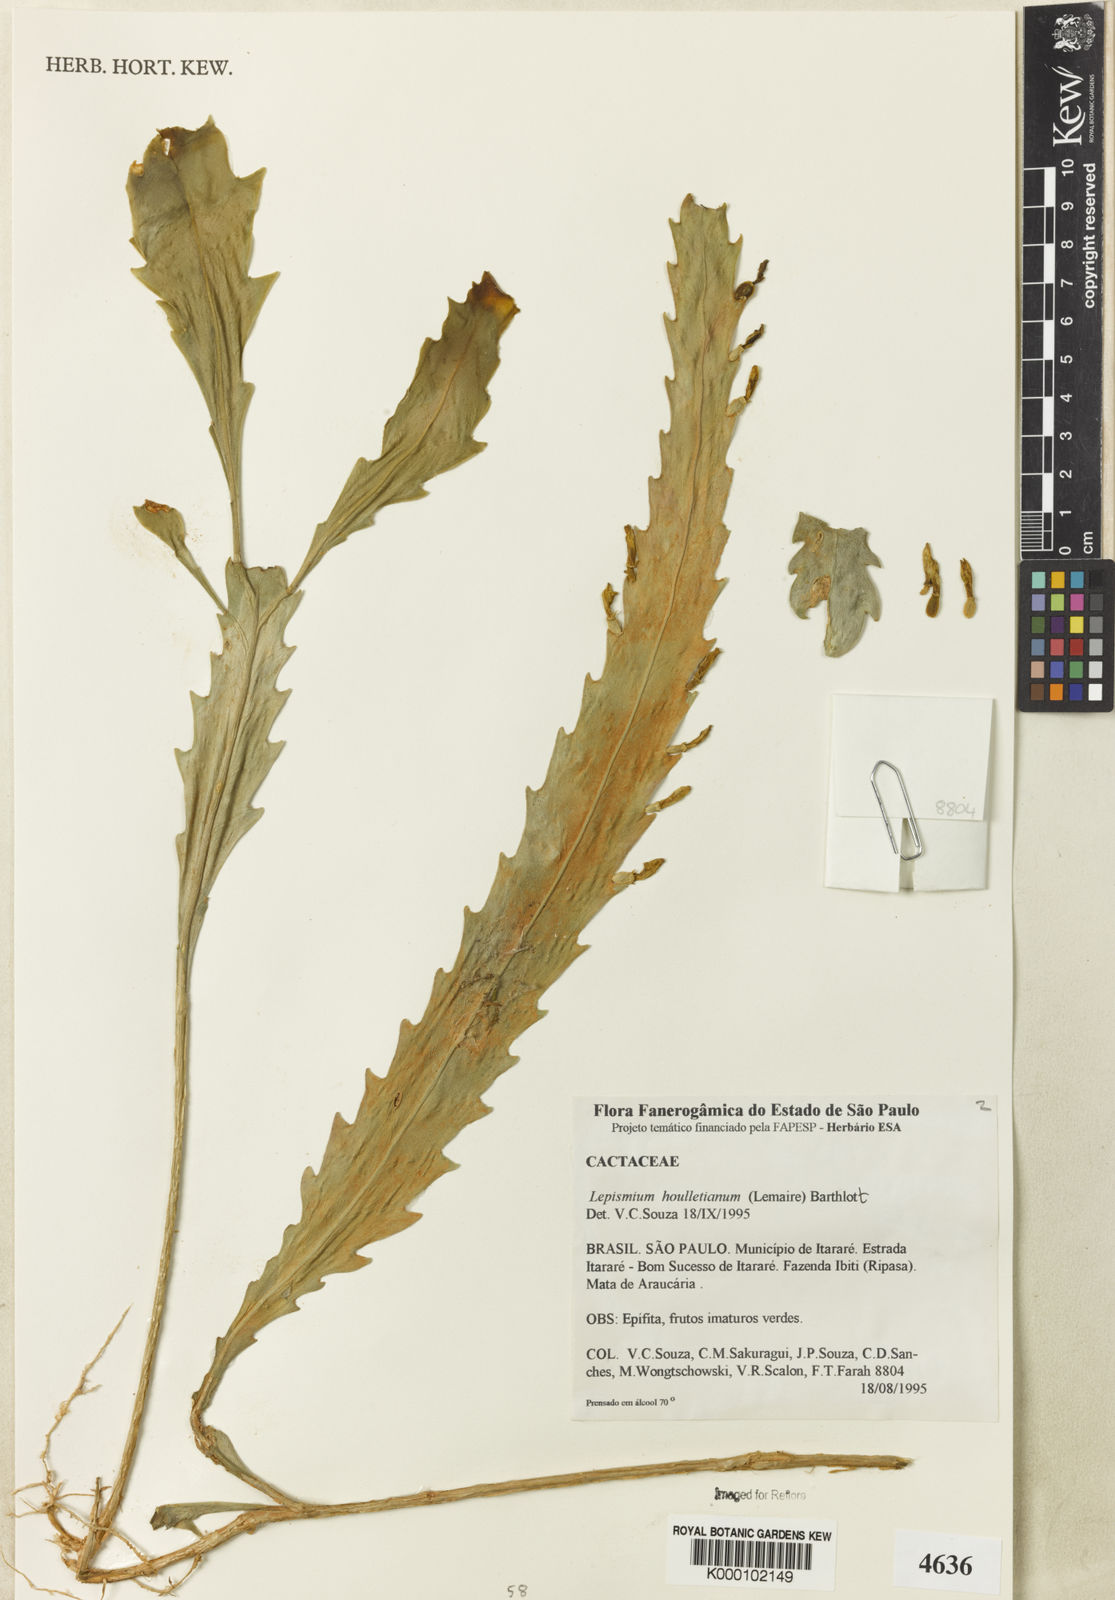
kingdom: Plantae
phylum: Tracheophyta
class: Magnoliopsida
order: Caryophyllales
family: Cactaceae
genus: Lepismium
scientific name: Lepismium houlletianum
